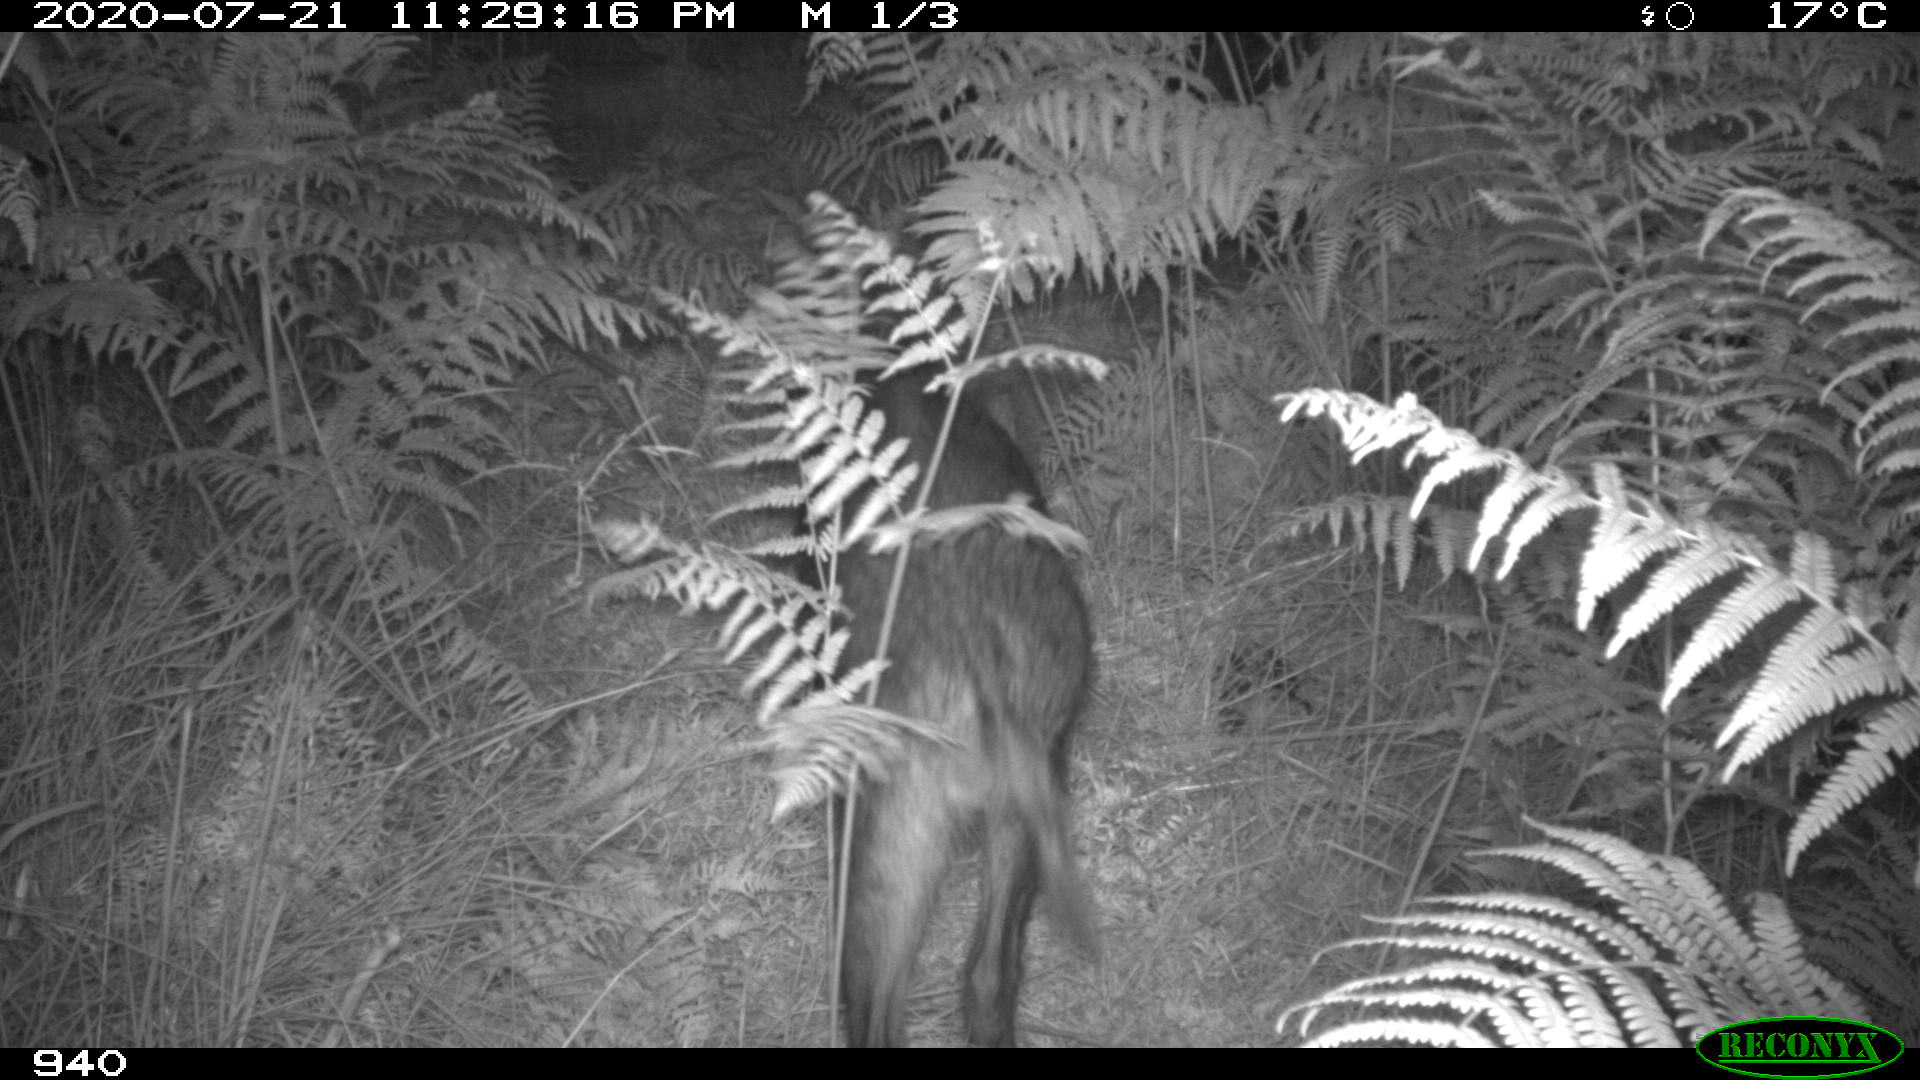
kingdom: Animalia
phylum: Chordata
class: Mammalia
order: Artiodactyla
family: Suidae
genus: Sus
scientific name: Sus scrofa
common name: Wild boar
